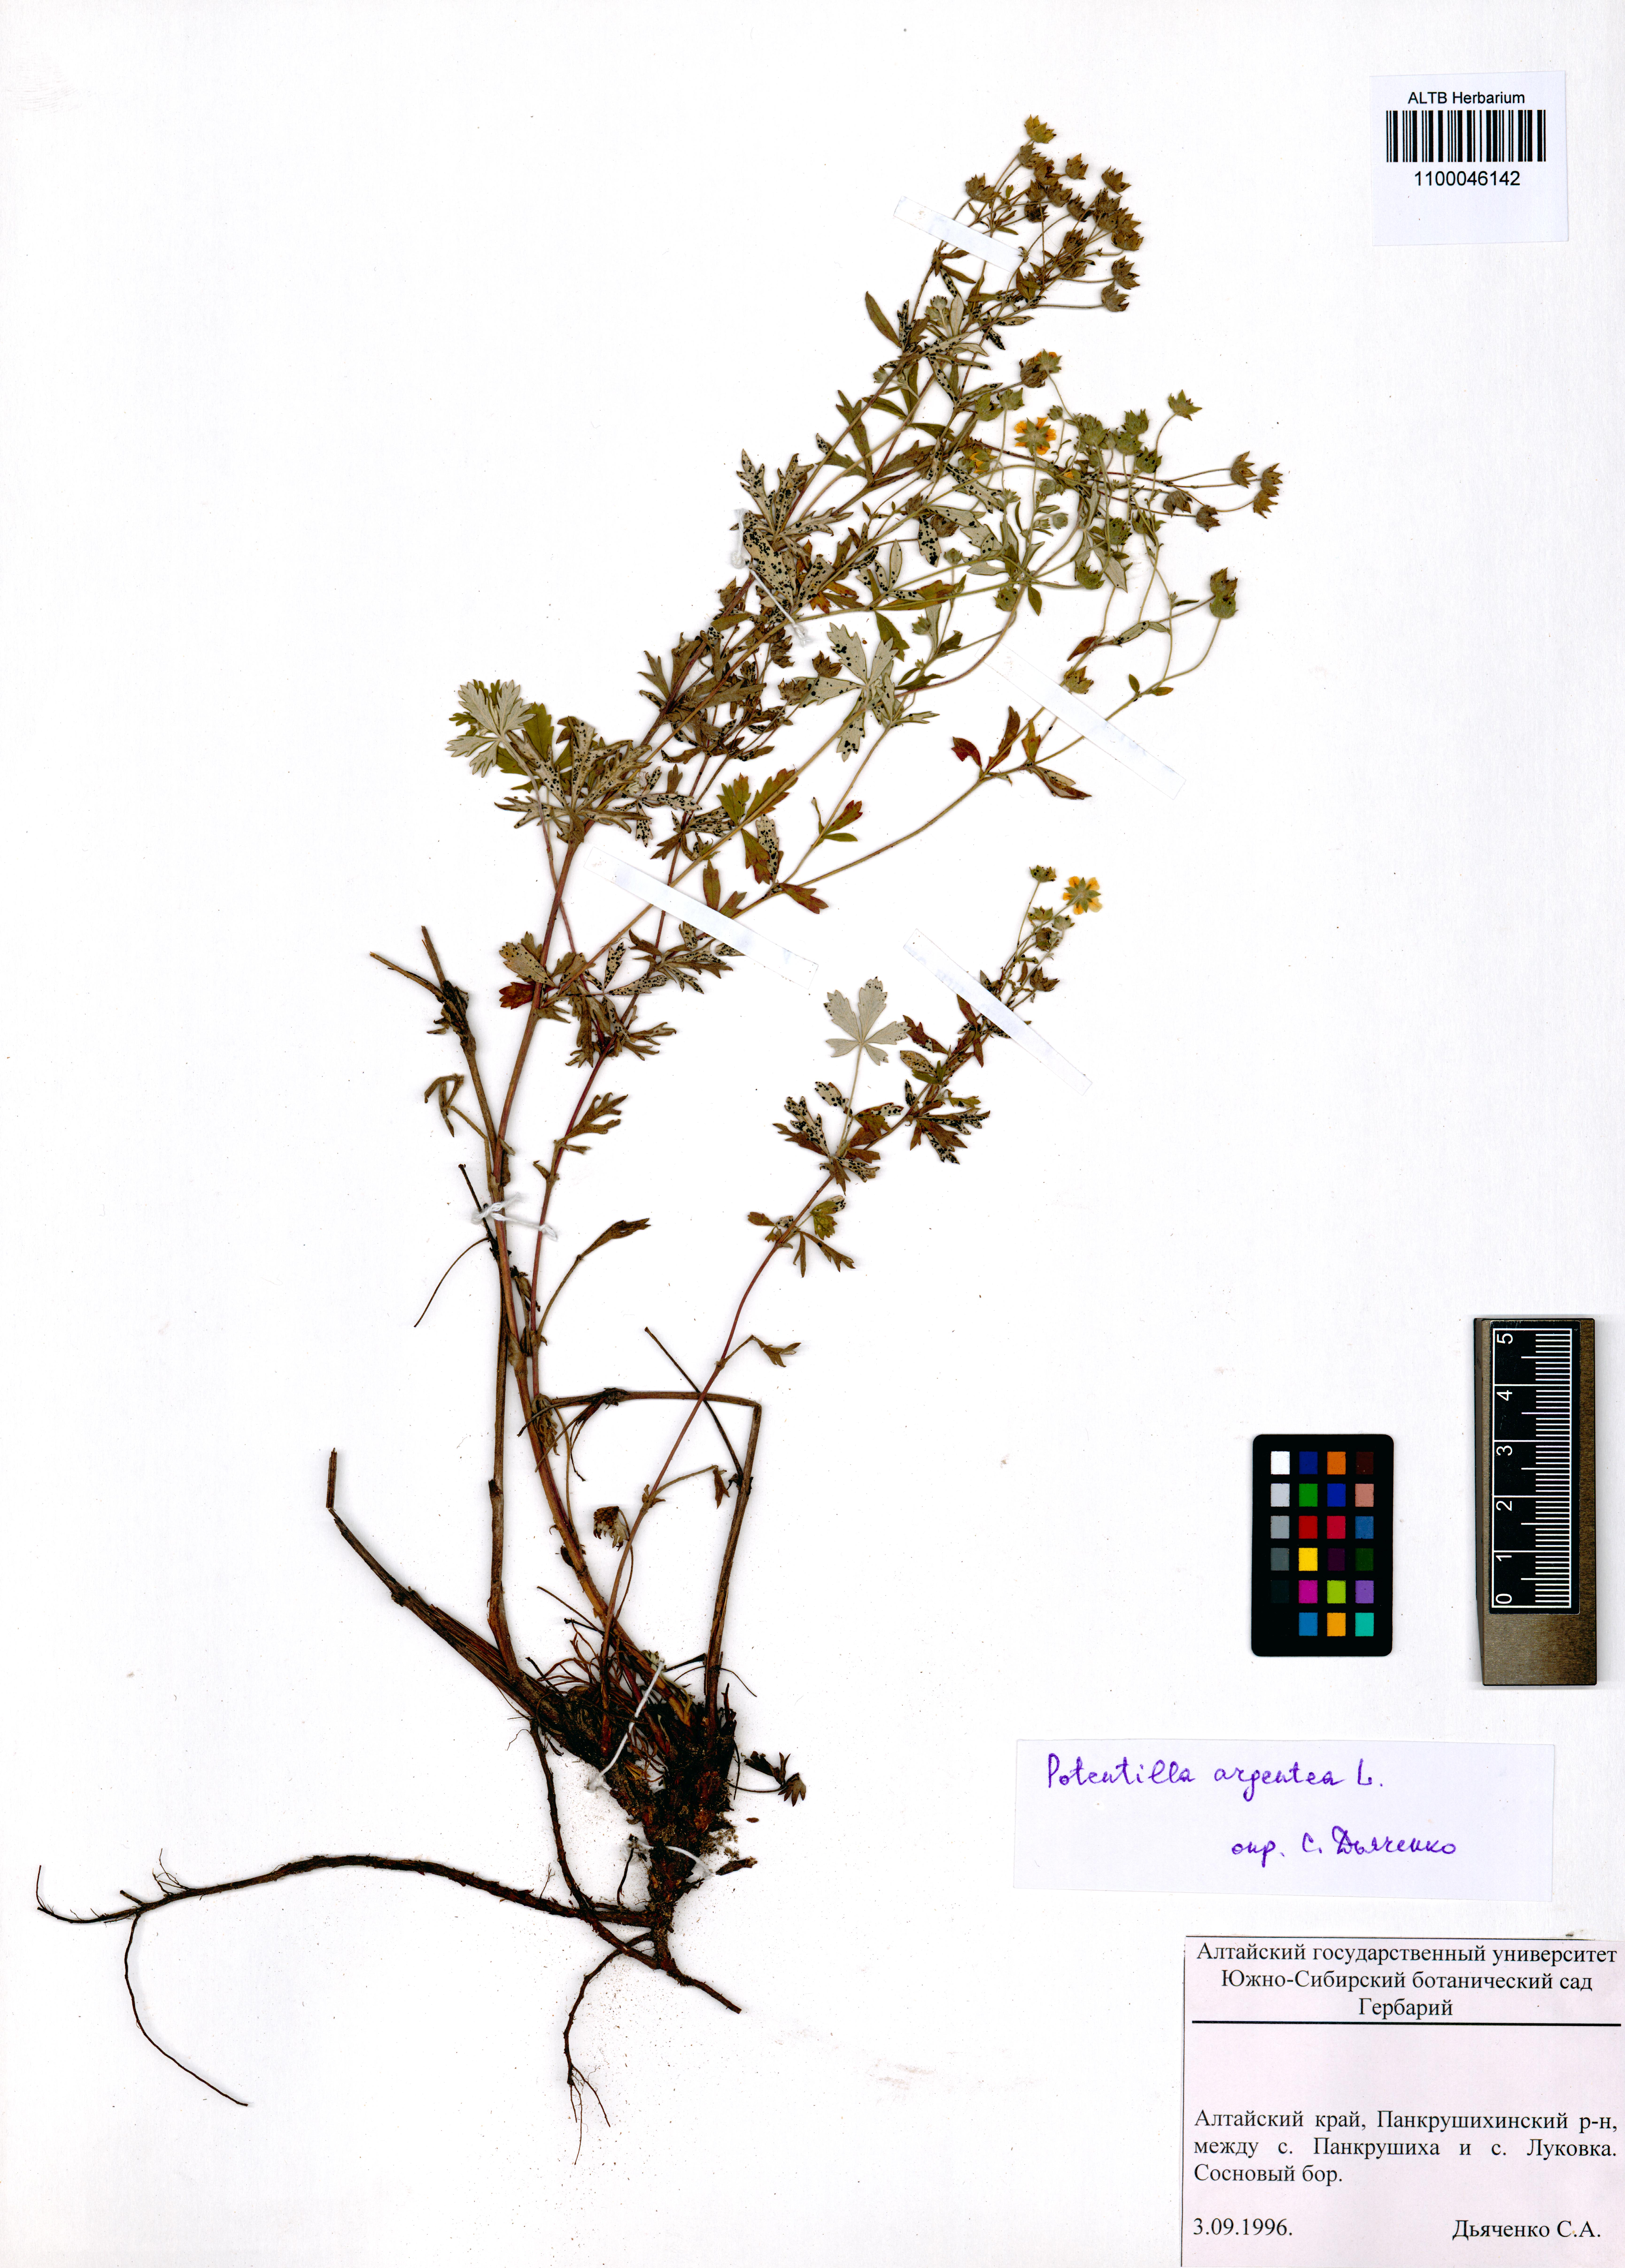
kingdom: Plantae
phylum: Tracheophyta
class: Magnoliopsida
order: Rosales
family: Rosaceae
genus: Potentilla
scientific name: Potentilla argentea
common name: Hoary cinquefoil
